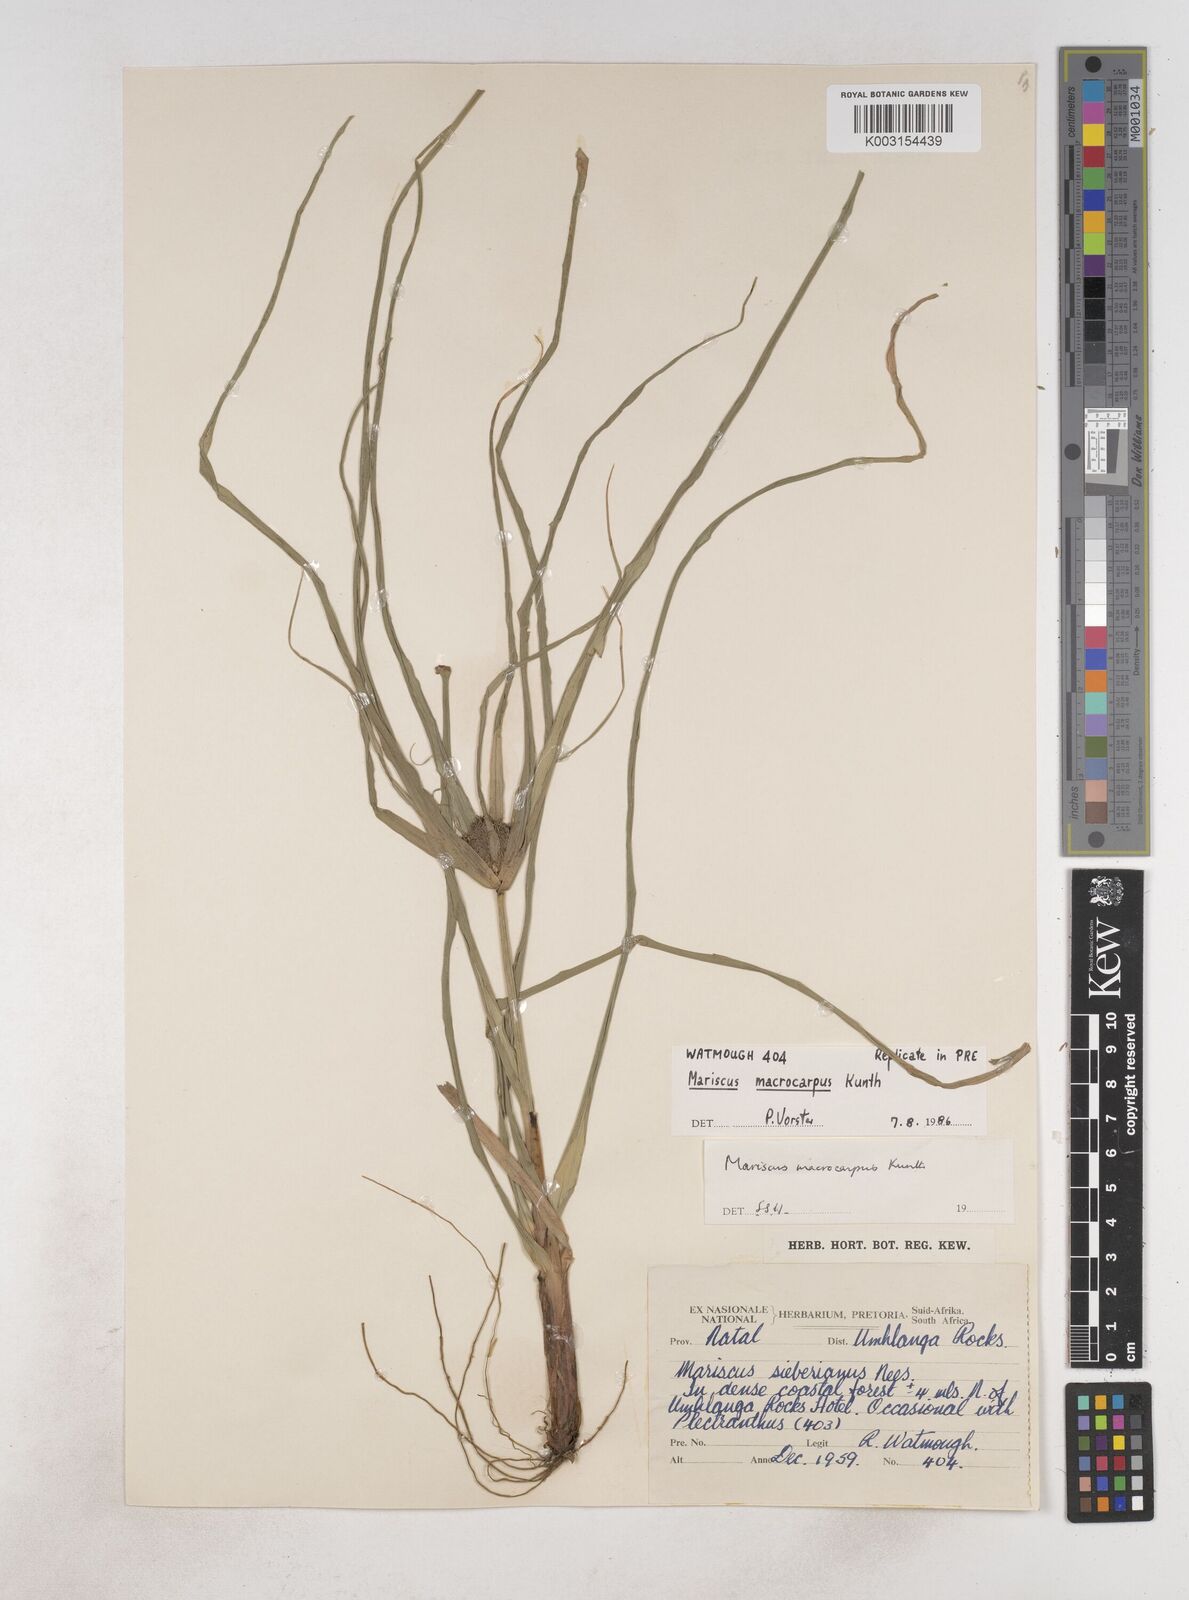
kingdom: Plantae
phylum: Tracheophyta
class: Liliopsida
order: Poales
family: Cyperaceae
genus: Cyperus
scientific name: Cyperus macrocarpus
